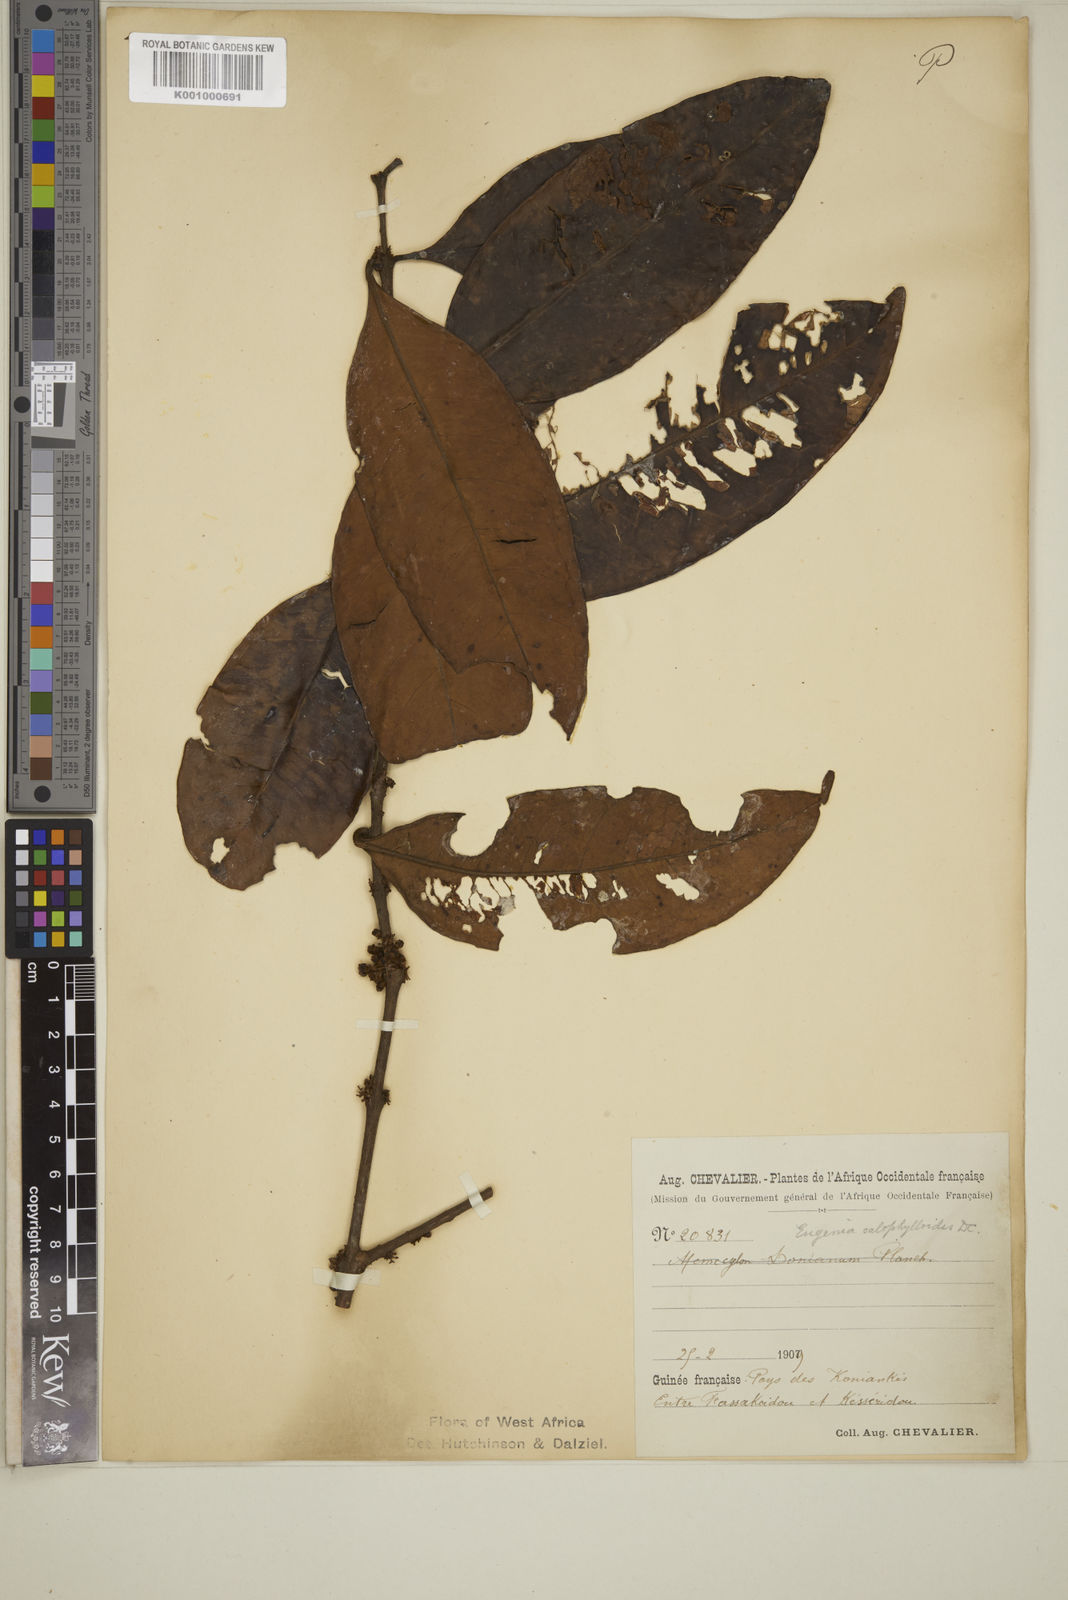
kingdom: Plantae
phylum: Tracheophyta
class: Magnoliopsida
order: Myrtales
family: Myrtaceae
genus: Eugenia
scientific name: Eugenia calophylloides
